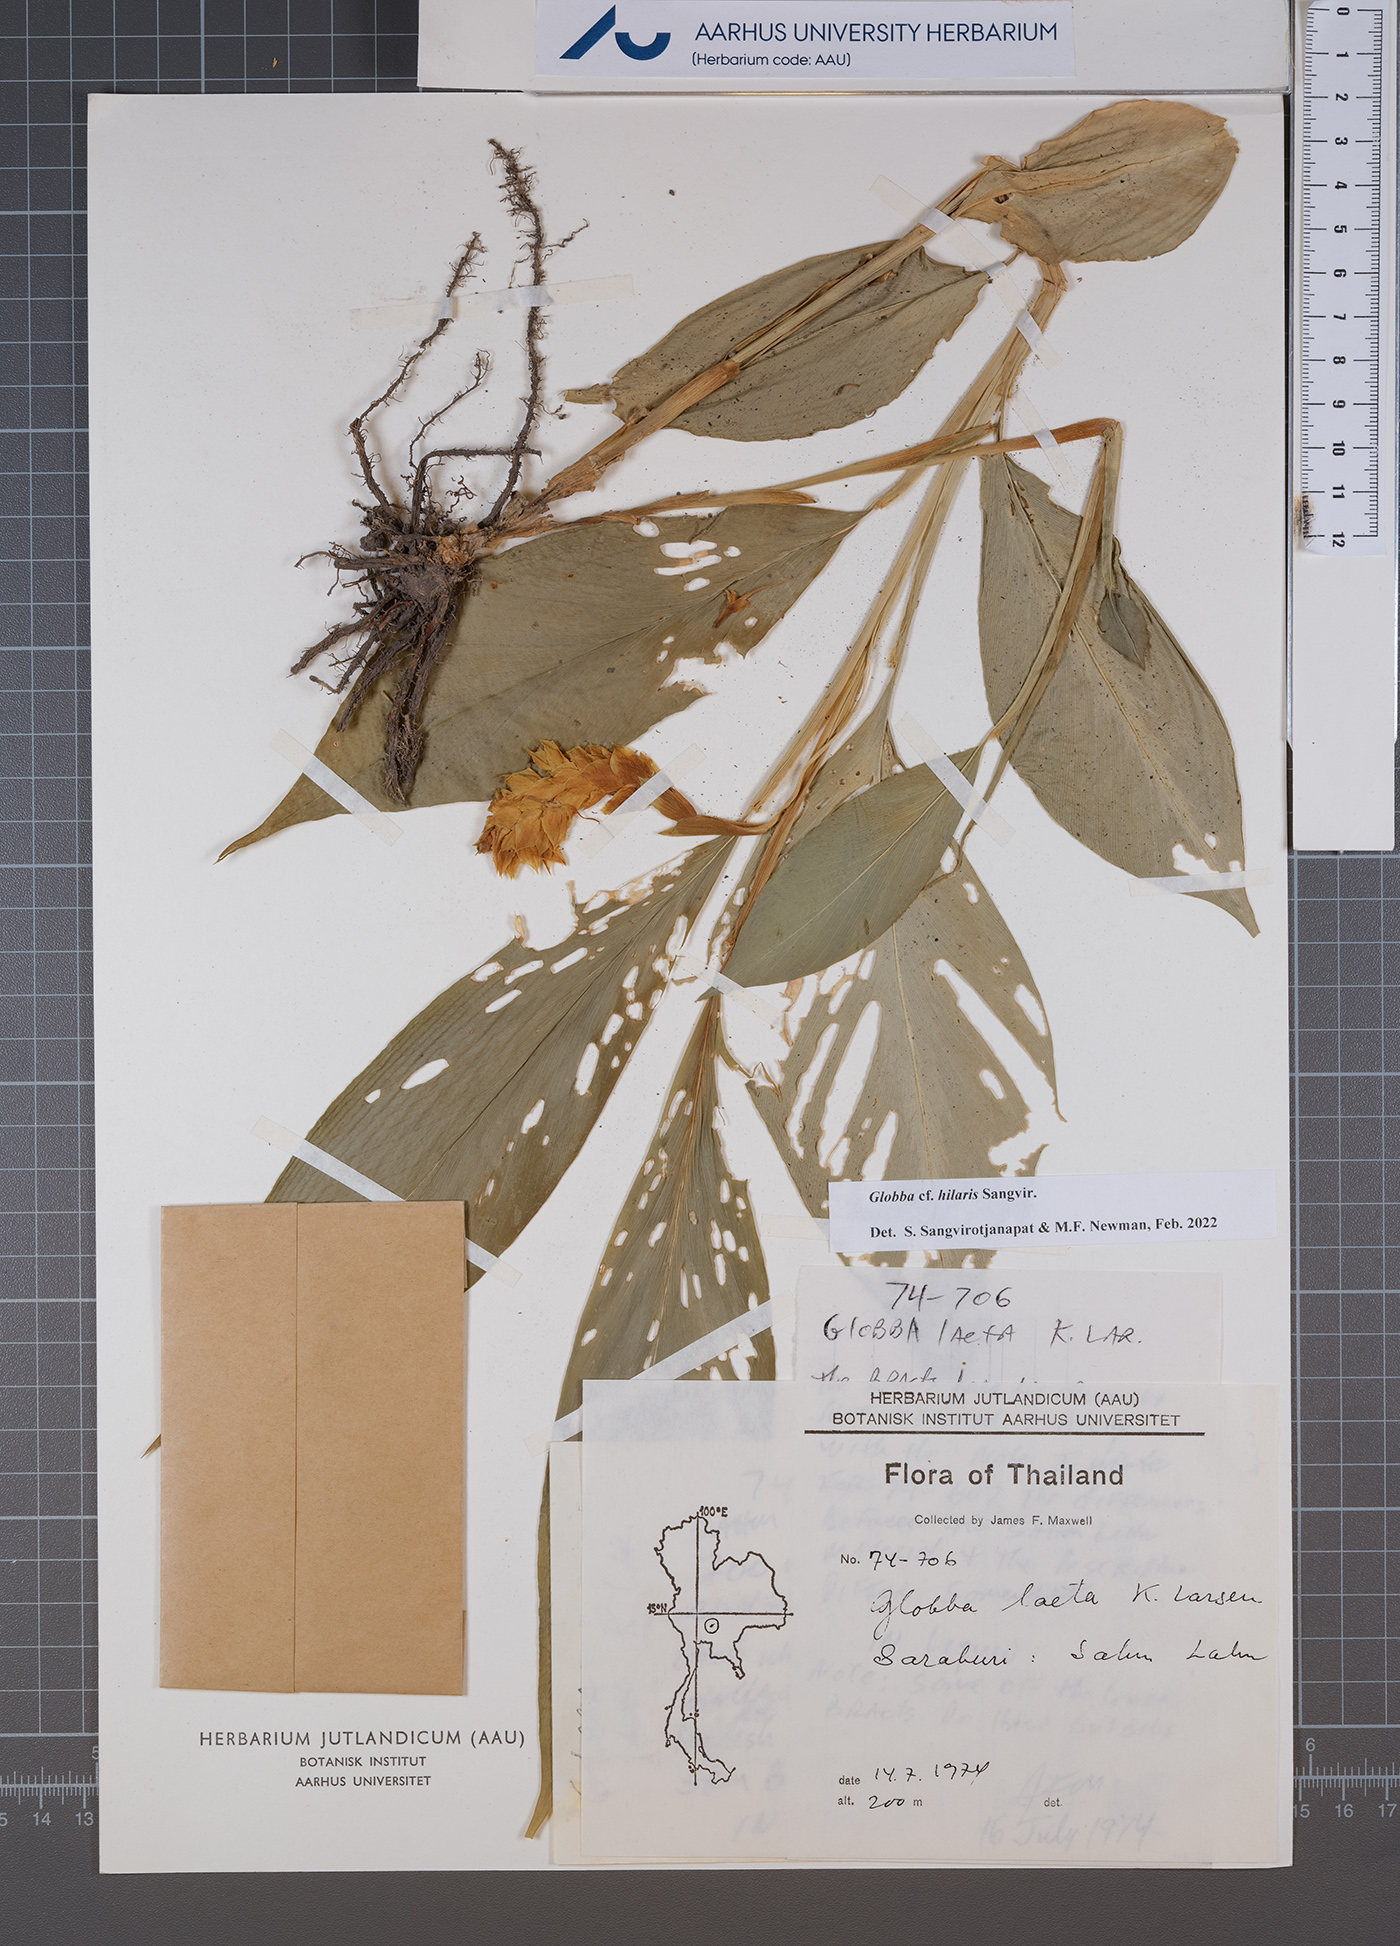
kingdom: Plantae
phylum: Tracheophyta
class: Liliopsida
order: Zingiberales
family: Zingiberaceae
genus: Globba
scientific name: Globba hilaris
